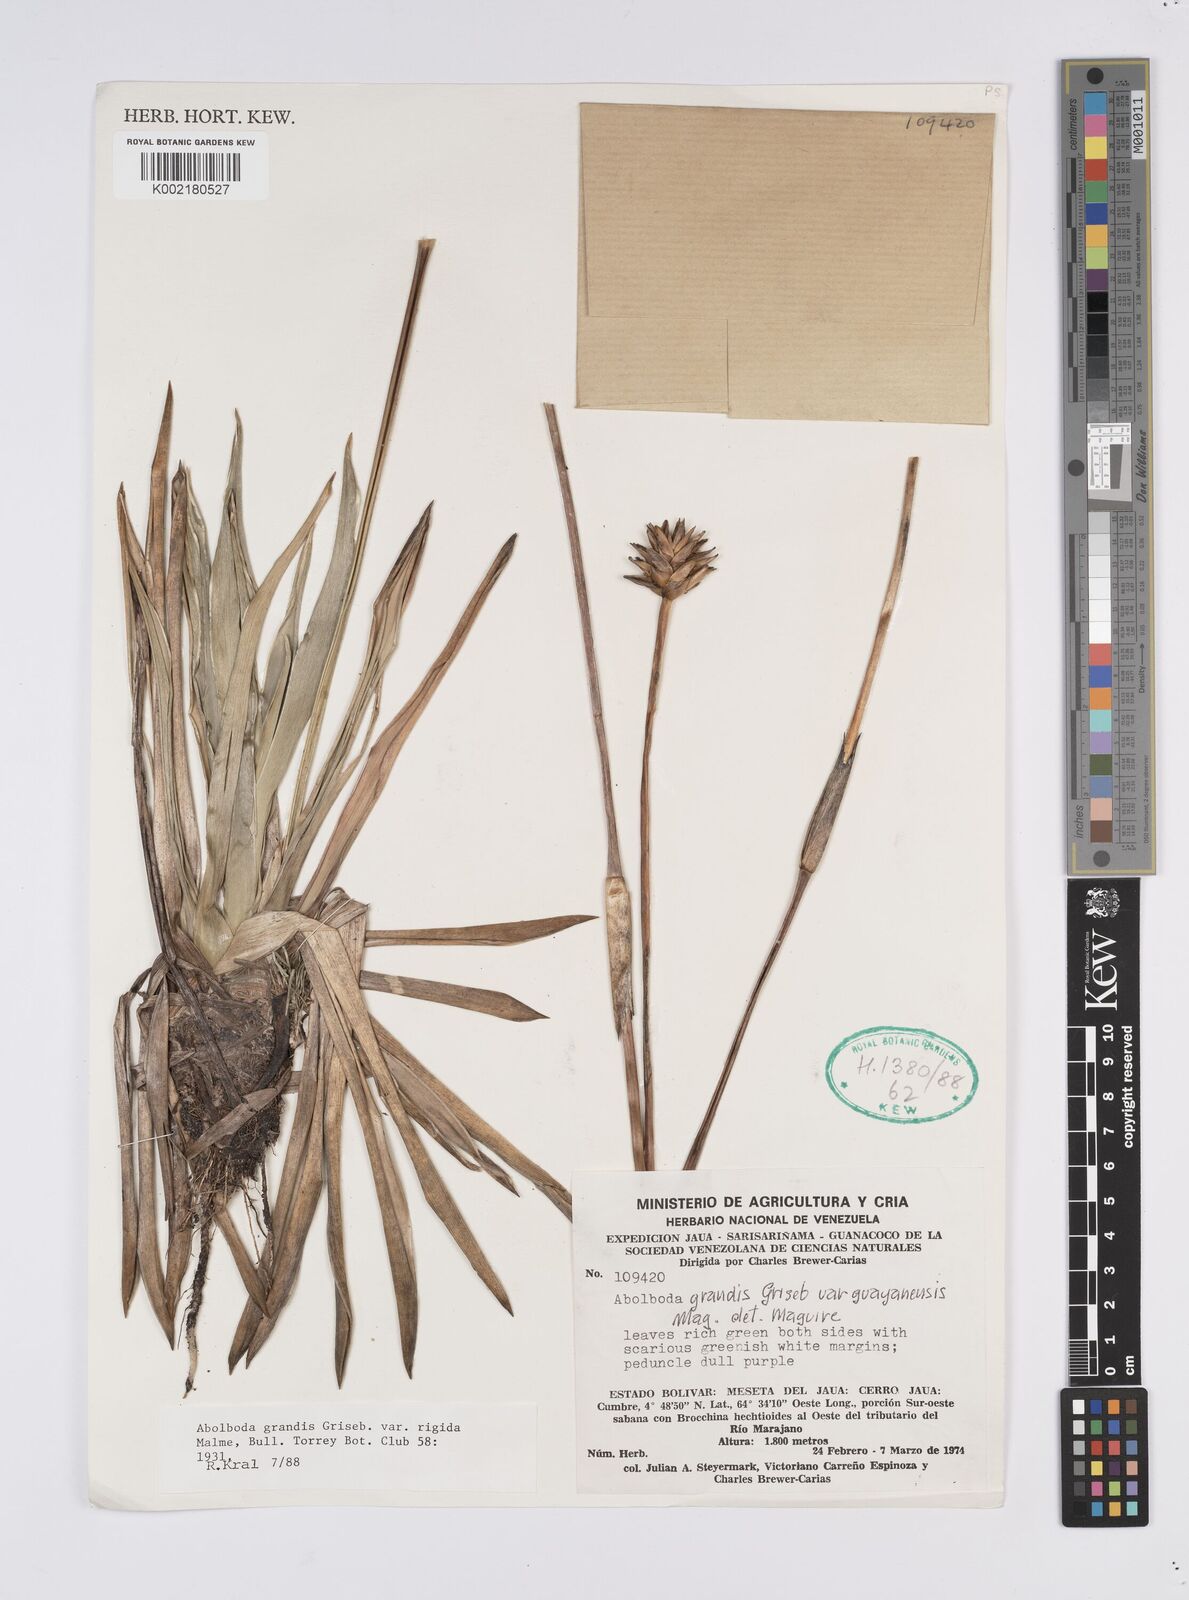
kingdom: Plantae
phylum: Tracheophyta
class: Liliopsida
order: Poales
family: Xyridaceae
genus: Abolboda
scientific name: Abolboda grandis
